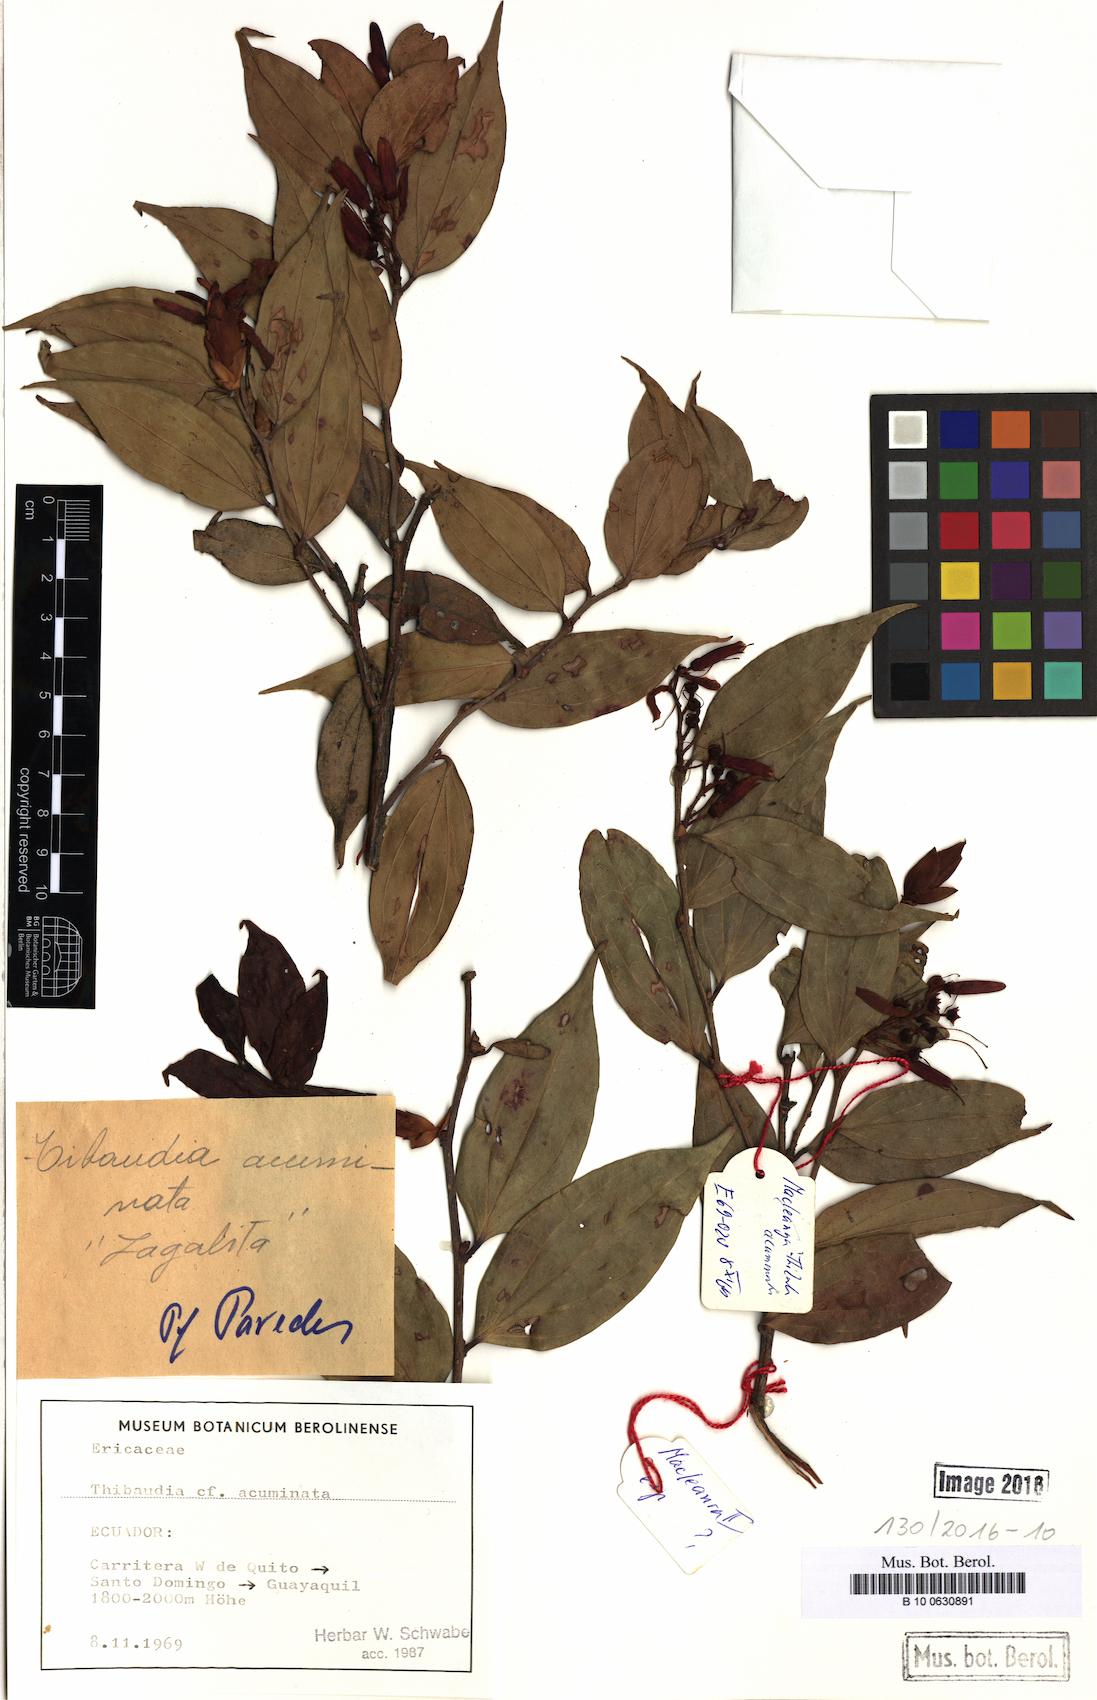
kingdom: Plantae
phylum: Tracheophyta
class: Magnoliopsida
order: Ericales
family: Ericaceae
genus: Cavendishia
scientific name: Cavendishia bracteata
